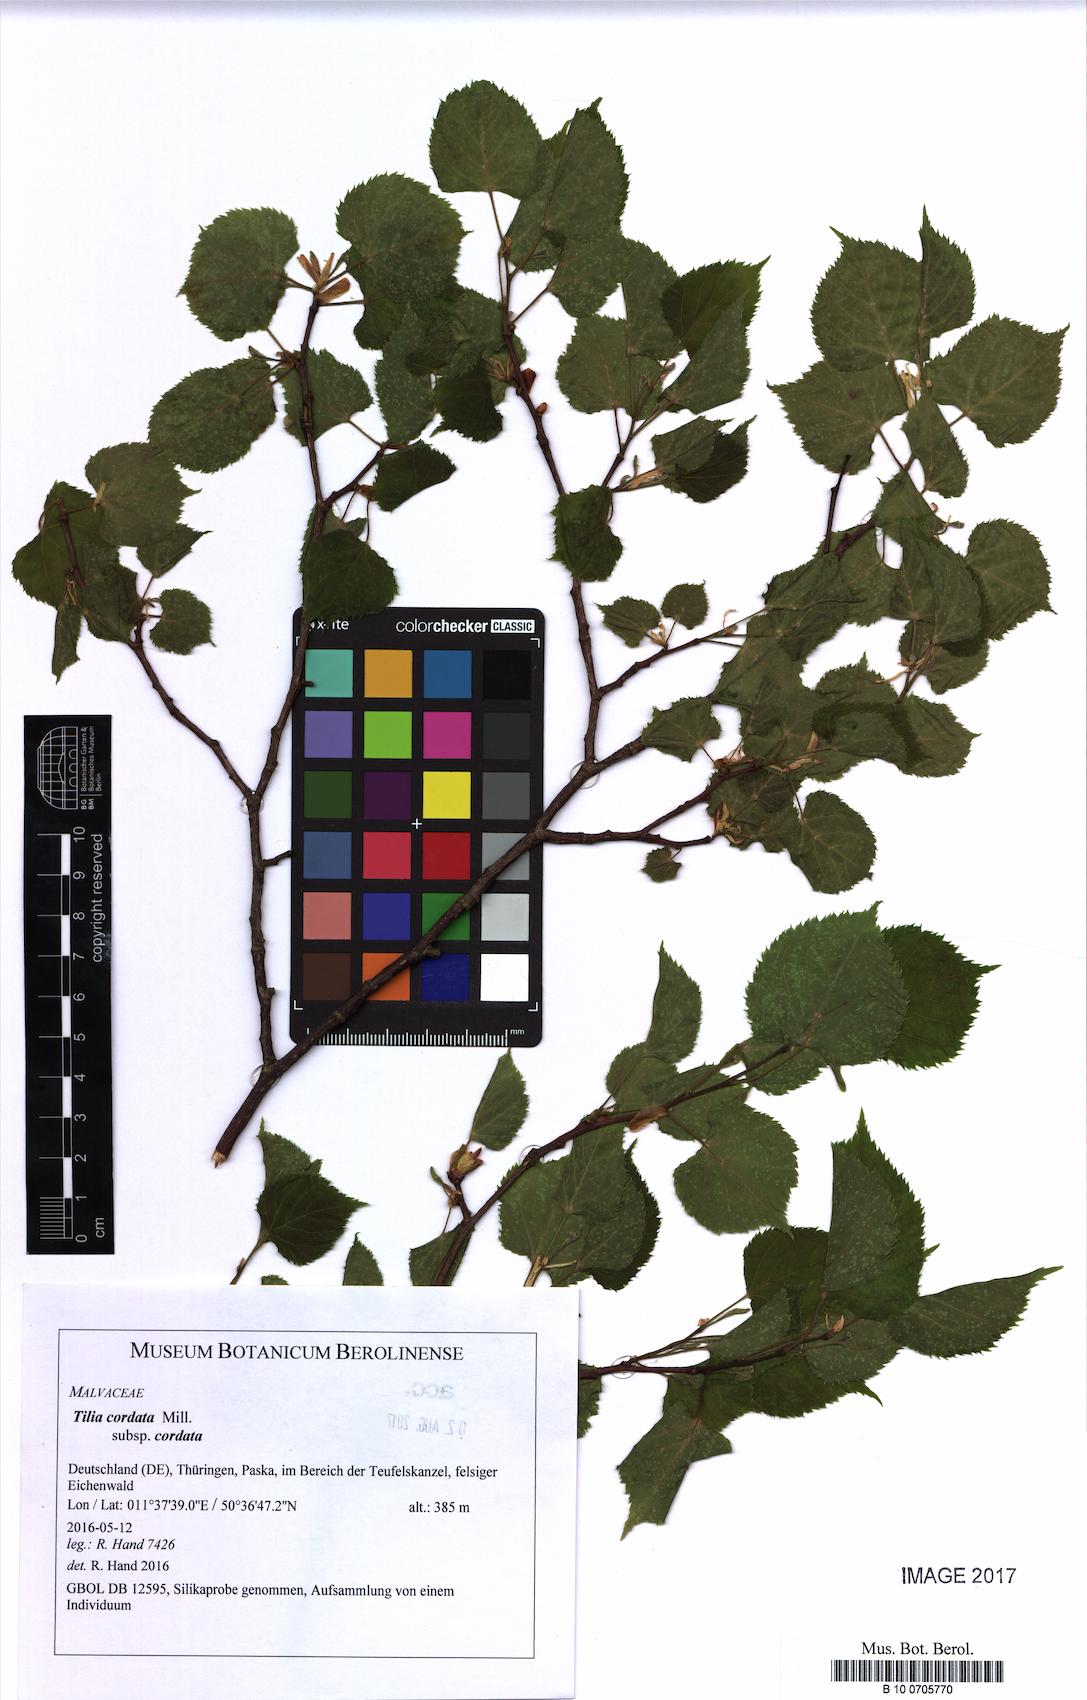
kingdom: Plantae
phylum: Tracheophyta
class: Magnoliopsida
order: Malvales
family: Malvaceae
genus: Tilia
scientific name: Tilia cordata
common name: Small-leaved lime
